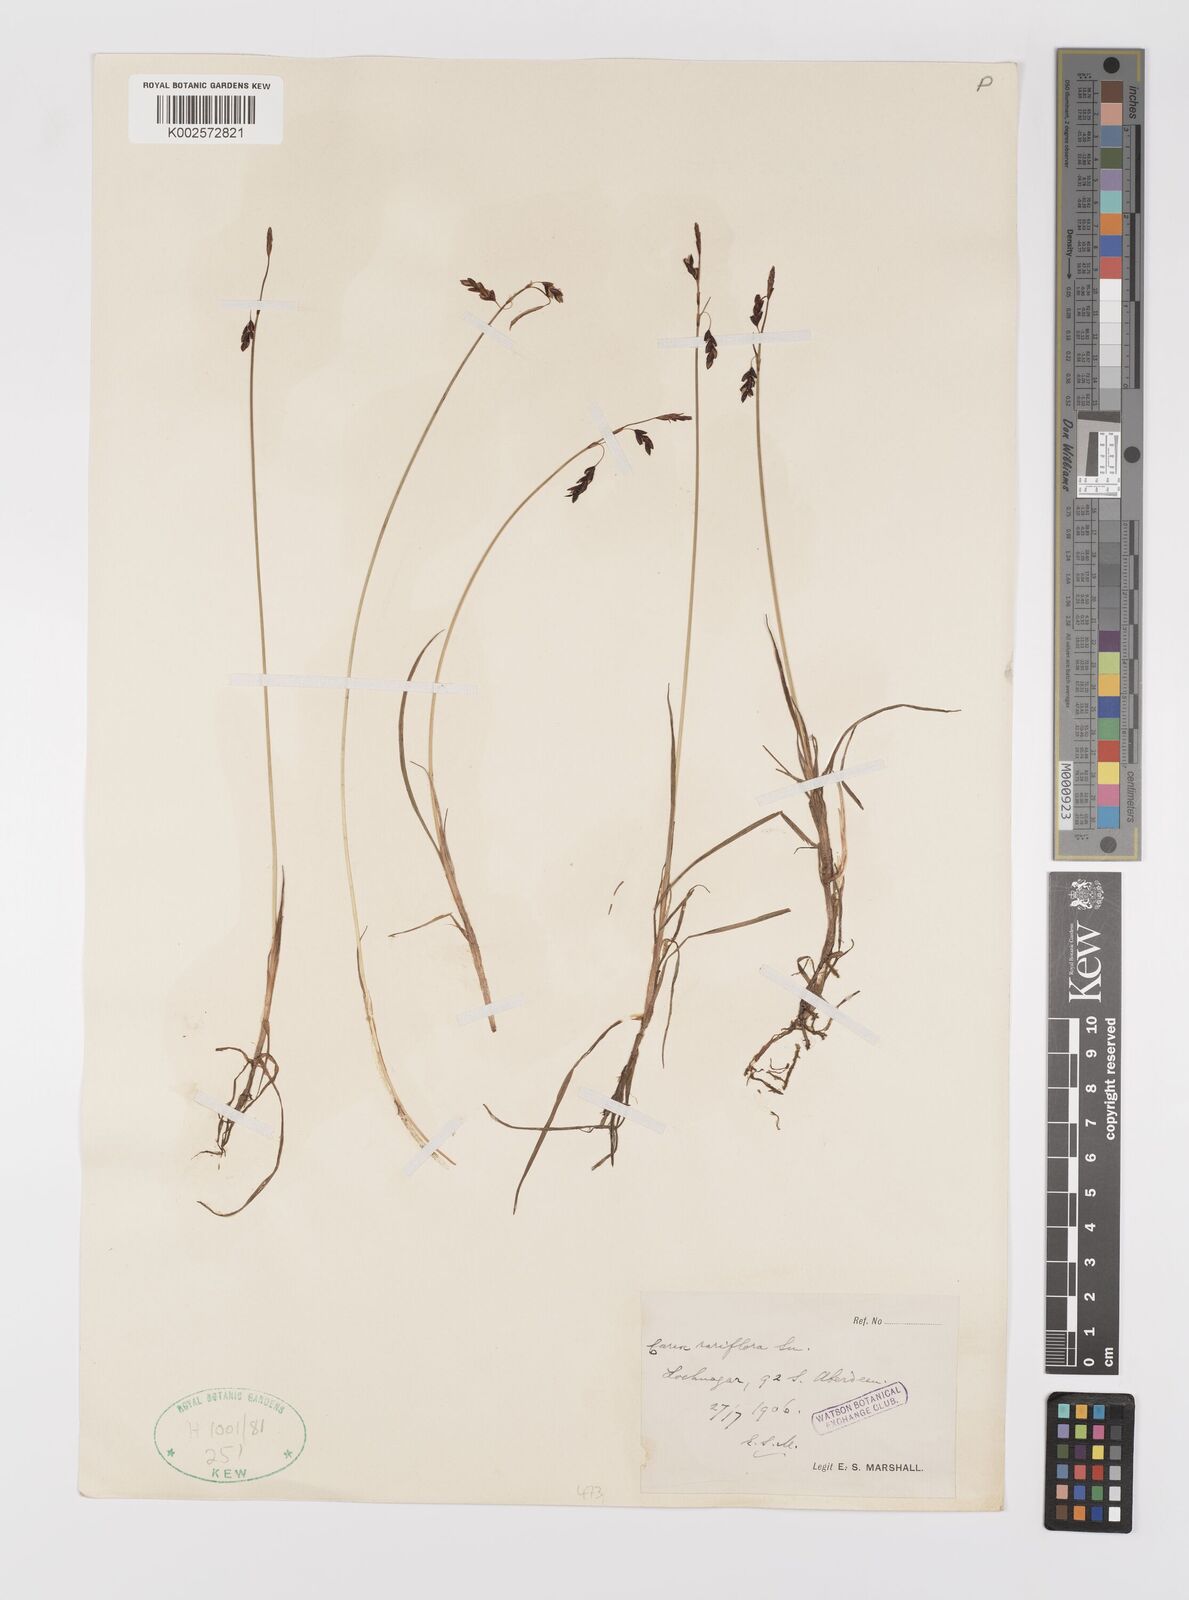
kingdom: Plantae
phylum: Tracheophyta
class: Liliopsida
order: Poales
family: Cyperaceae
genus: Carex
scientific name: Carex rariflora
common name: Loose-flowered alpine sedge
